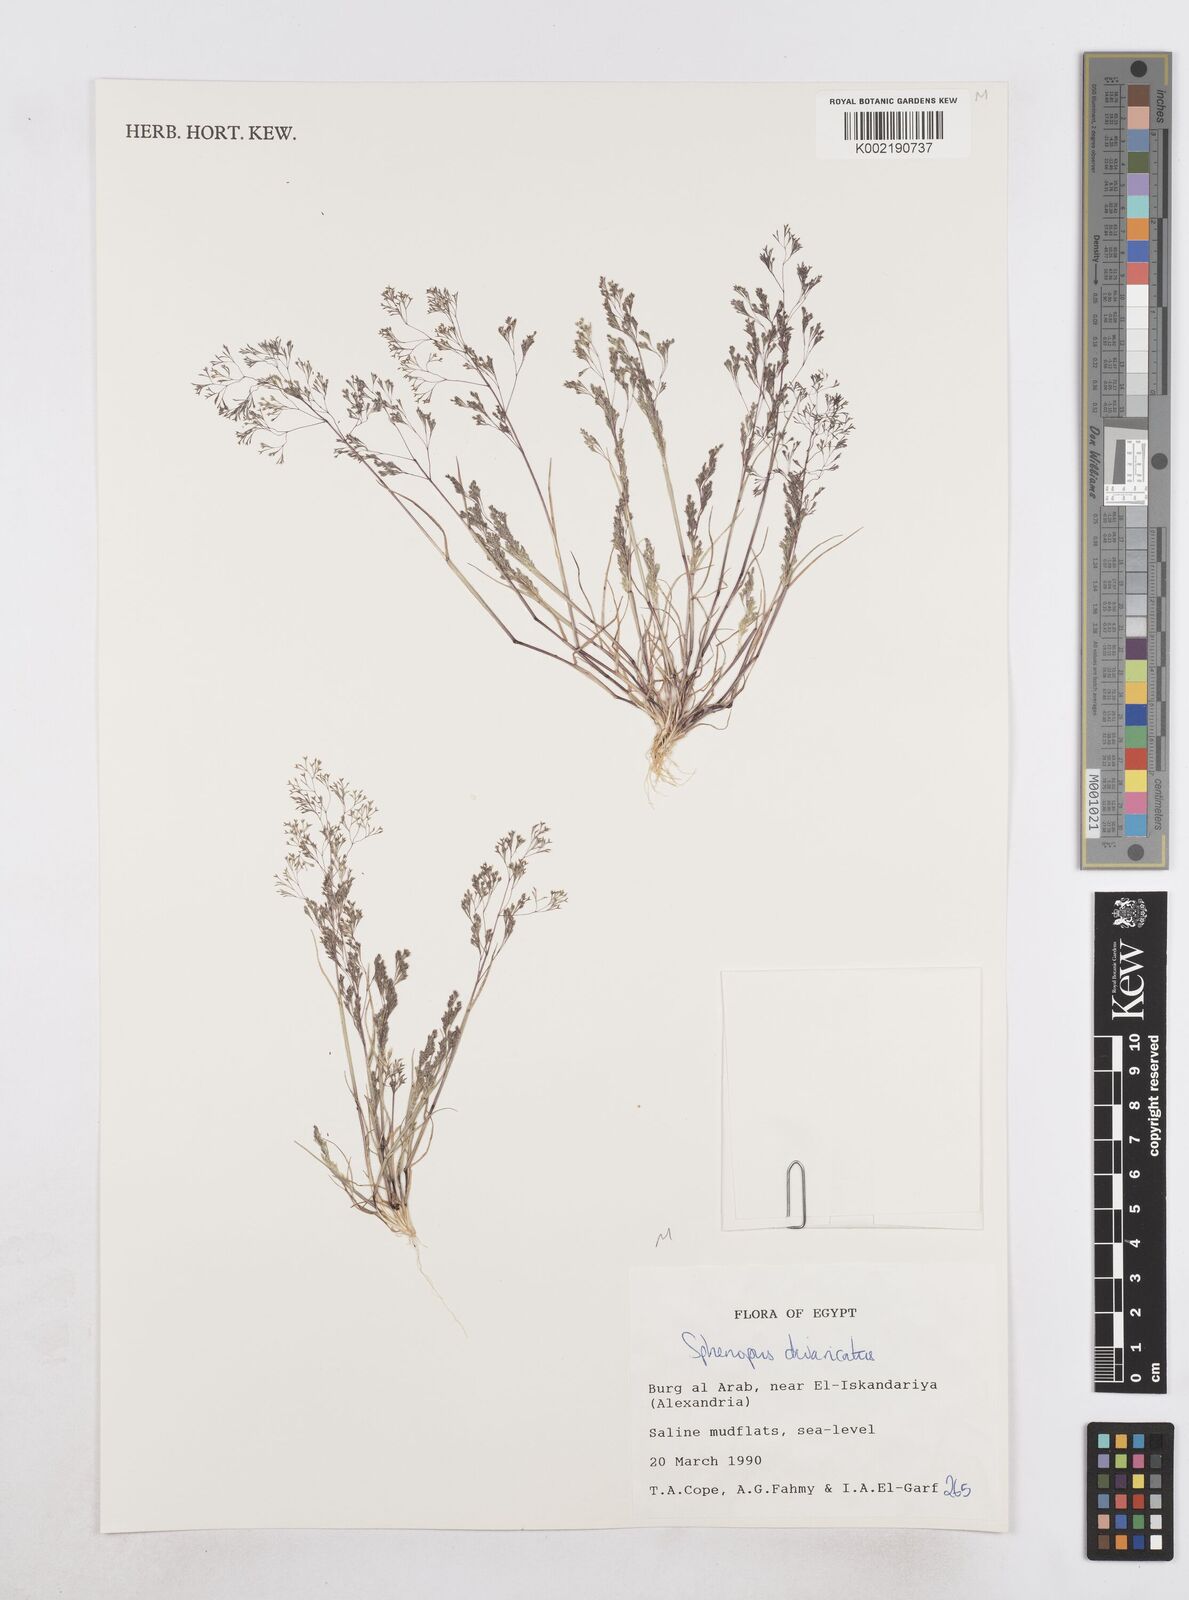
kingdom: Plantae
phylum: Tracheophyta
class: Liliopsida
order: Poales
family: Poaceae
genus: Sphenopus
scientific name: Sphenopus divaricatus
